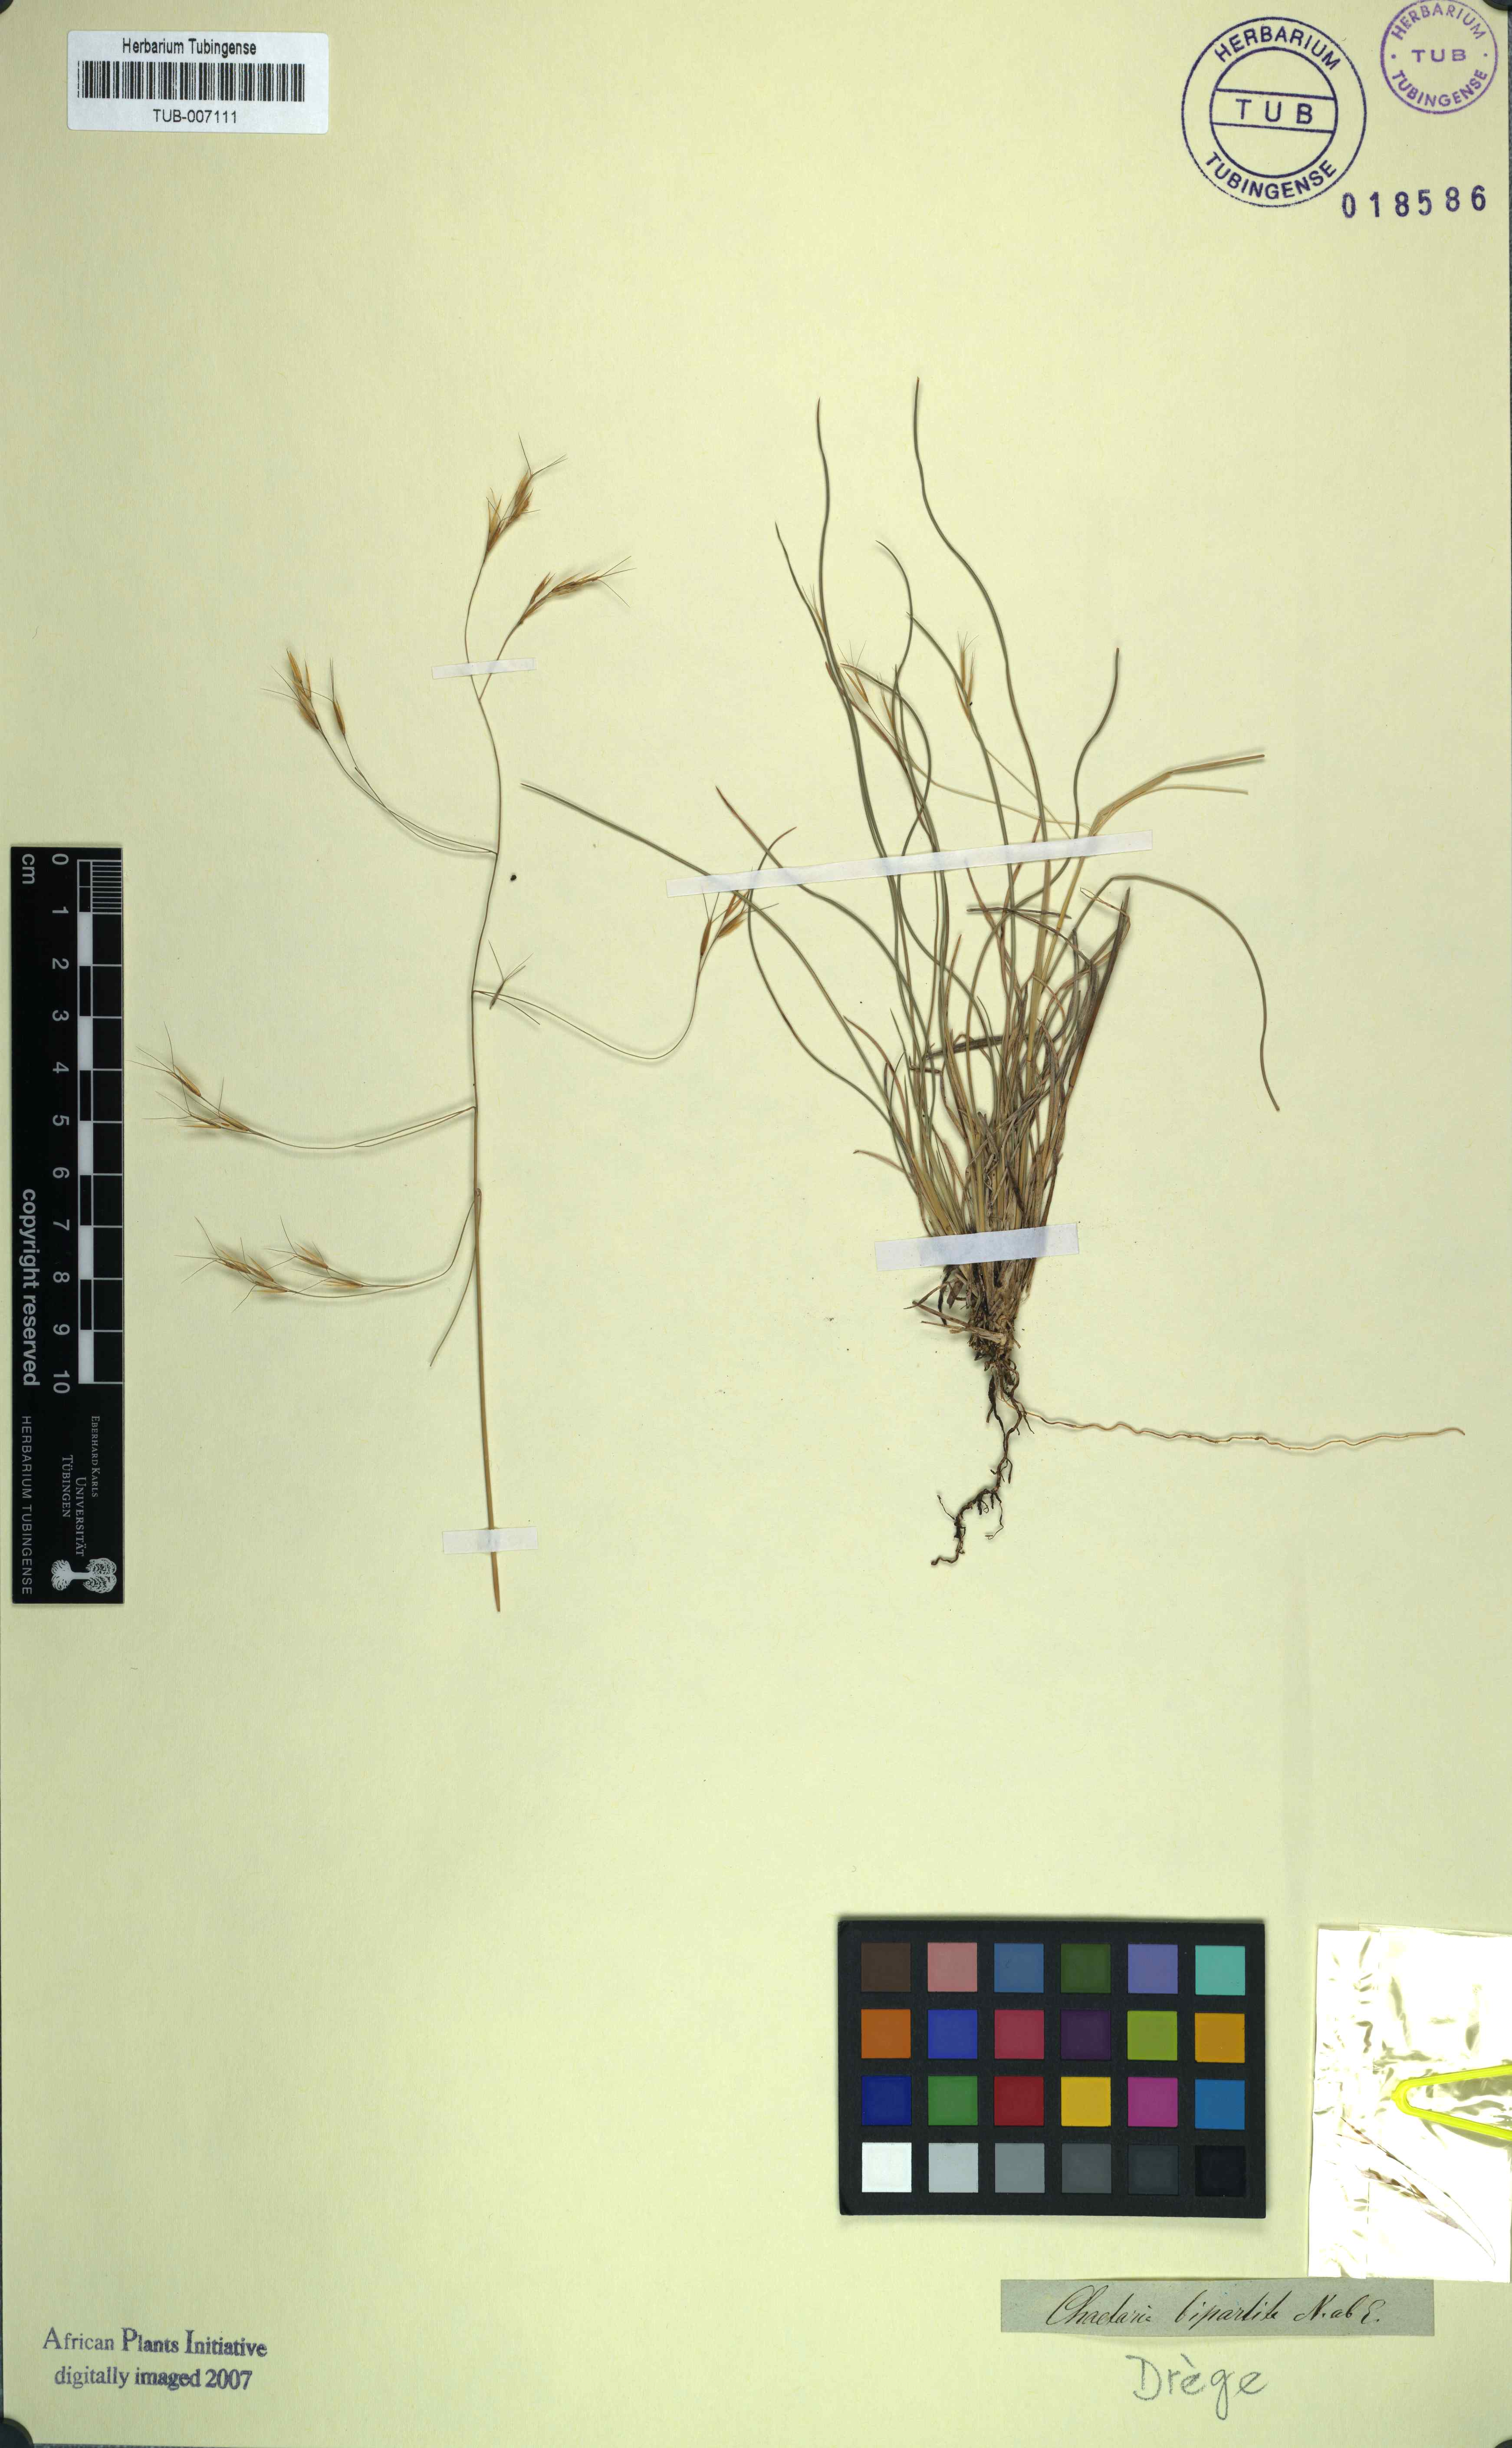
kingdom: Plantae
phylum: Tracheophyta
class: Liliopsida
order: Poales
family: Poaceae
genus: Aristida
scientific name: Aristida bipartita
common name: Three-awn rolling grass
